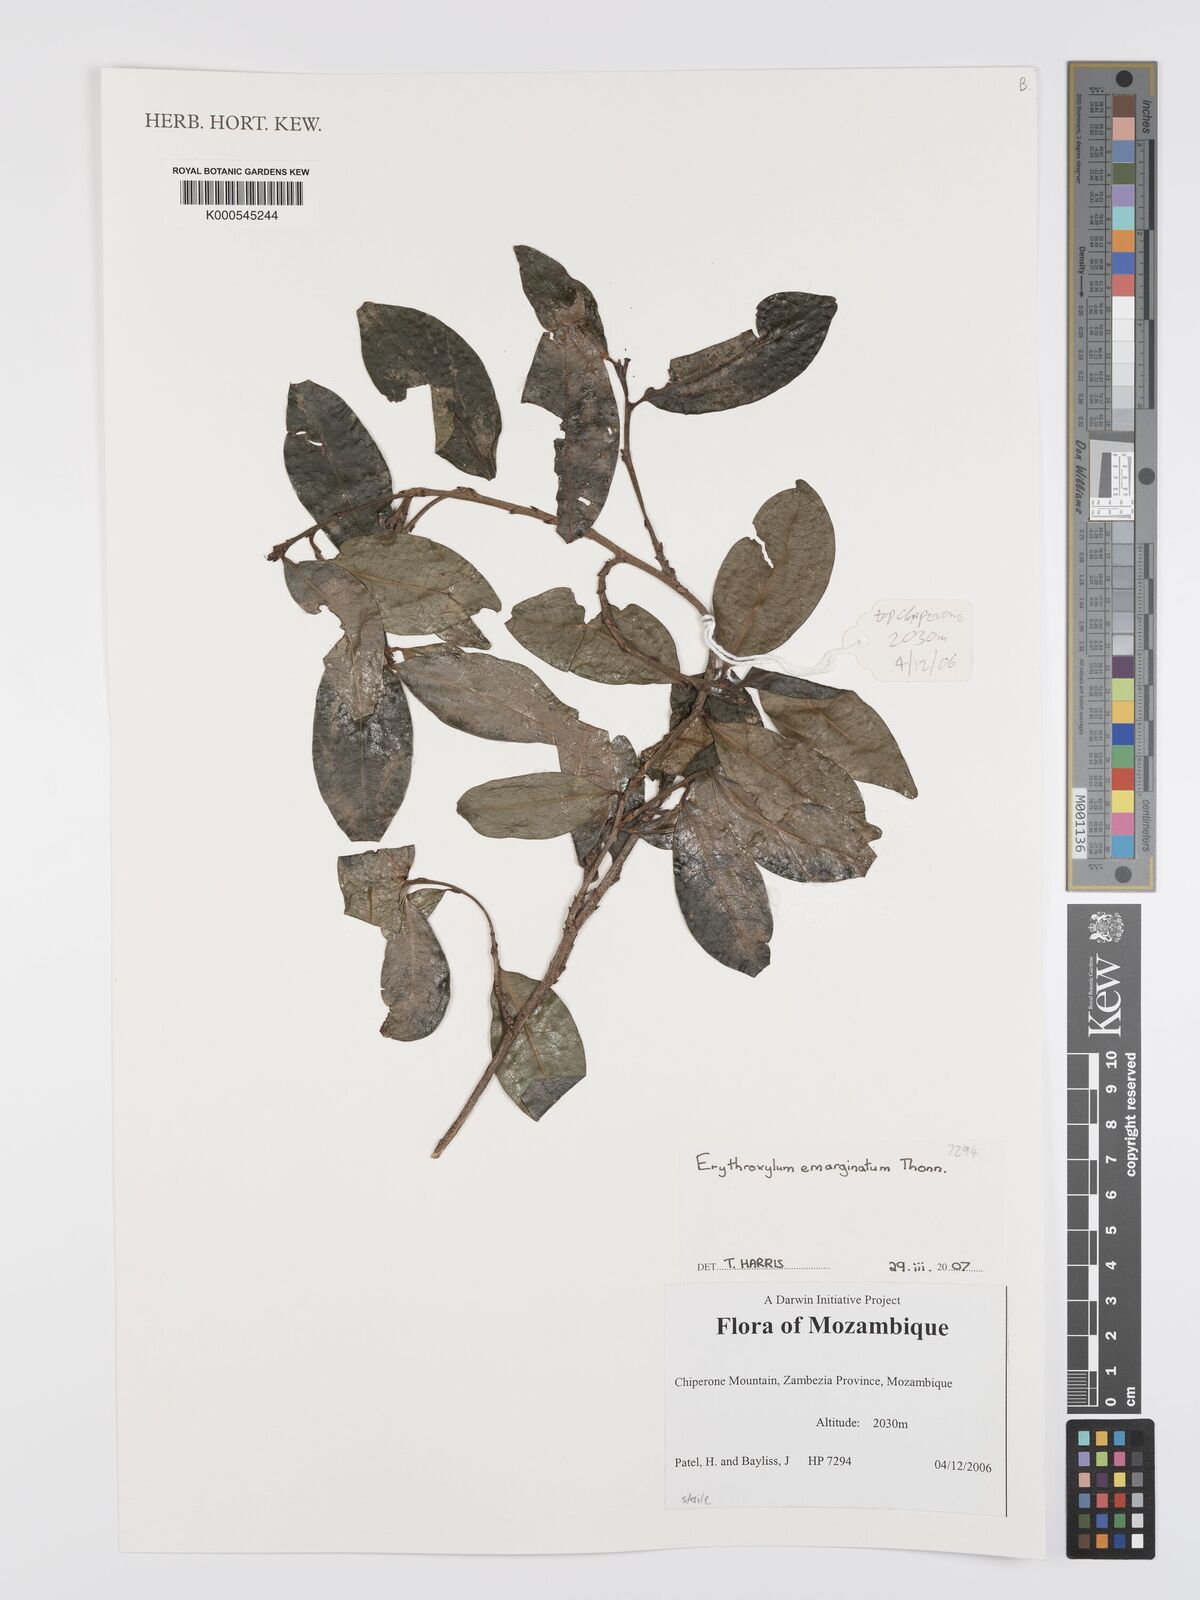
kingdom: Plantae
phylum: Tracheophyta
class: Magnoliopsida
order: Malpighiales
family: Erythroxylaceae
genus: Erythroxylum
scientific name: Erythroxylum emarginatum
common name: African coca-tree
